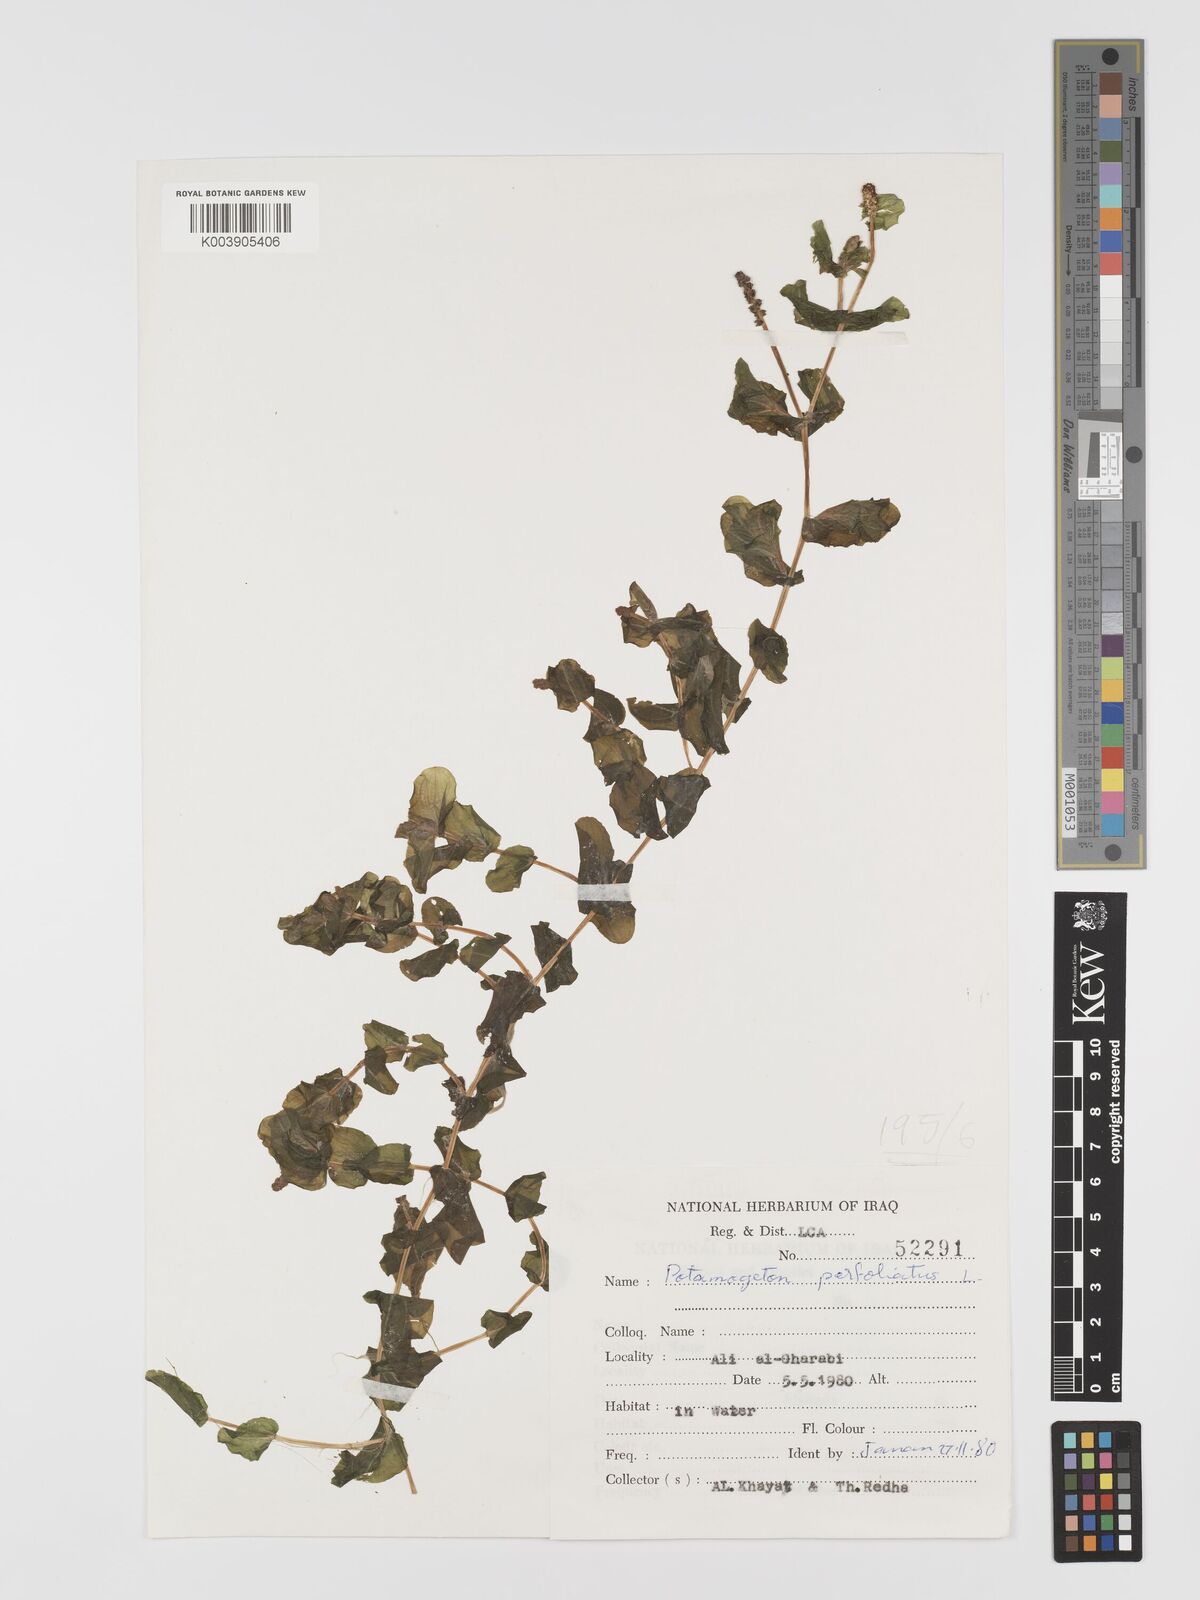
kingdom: Plantae
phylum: Tracheophyta
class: Liliopsida
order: Alismatales
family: Potamogetonaceae
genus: Potamogeton
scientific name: Potamogeton perfoliatus
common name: Perfoliate pondweed
